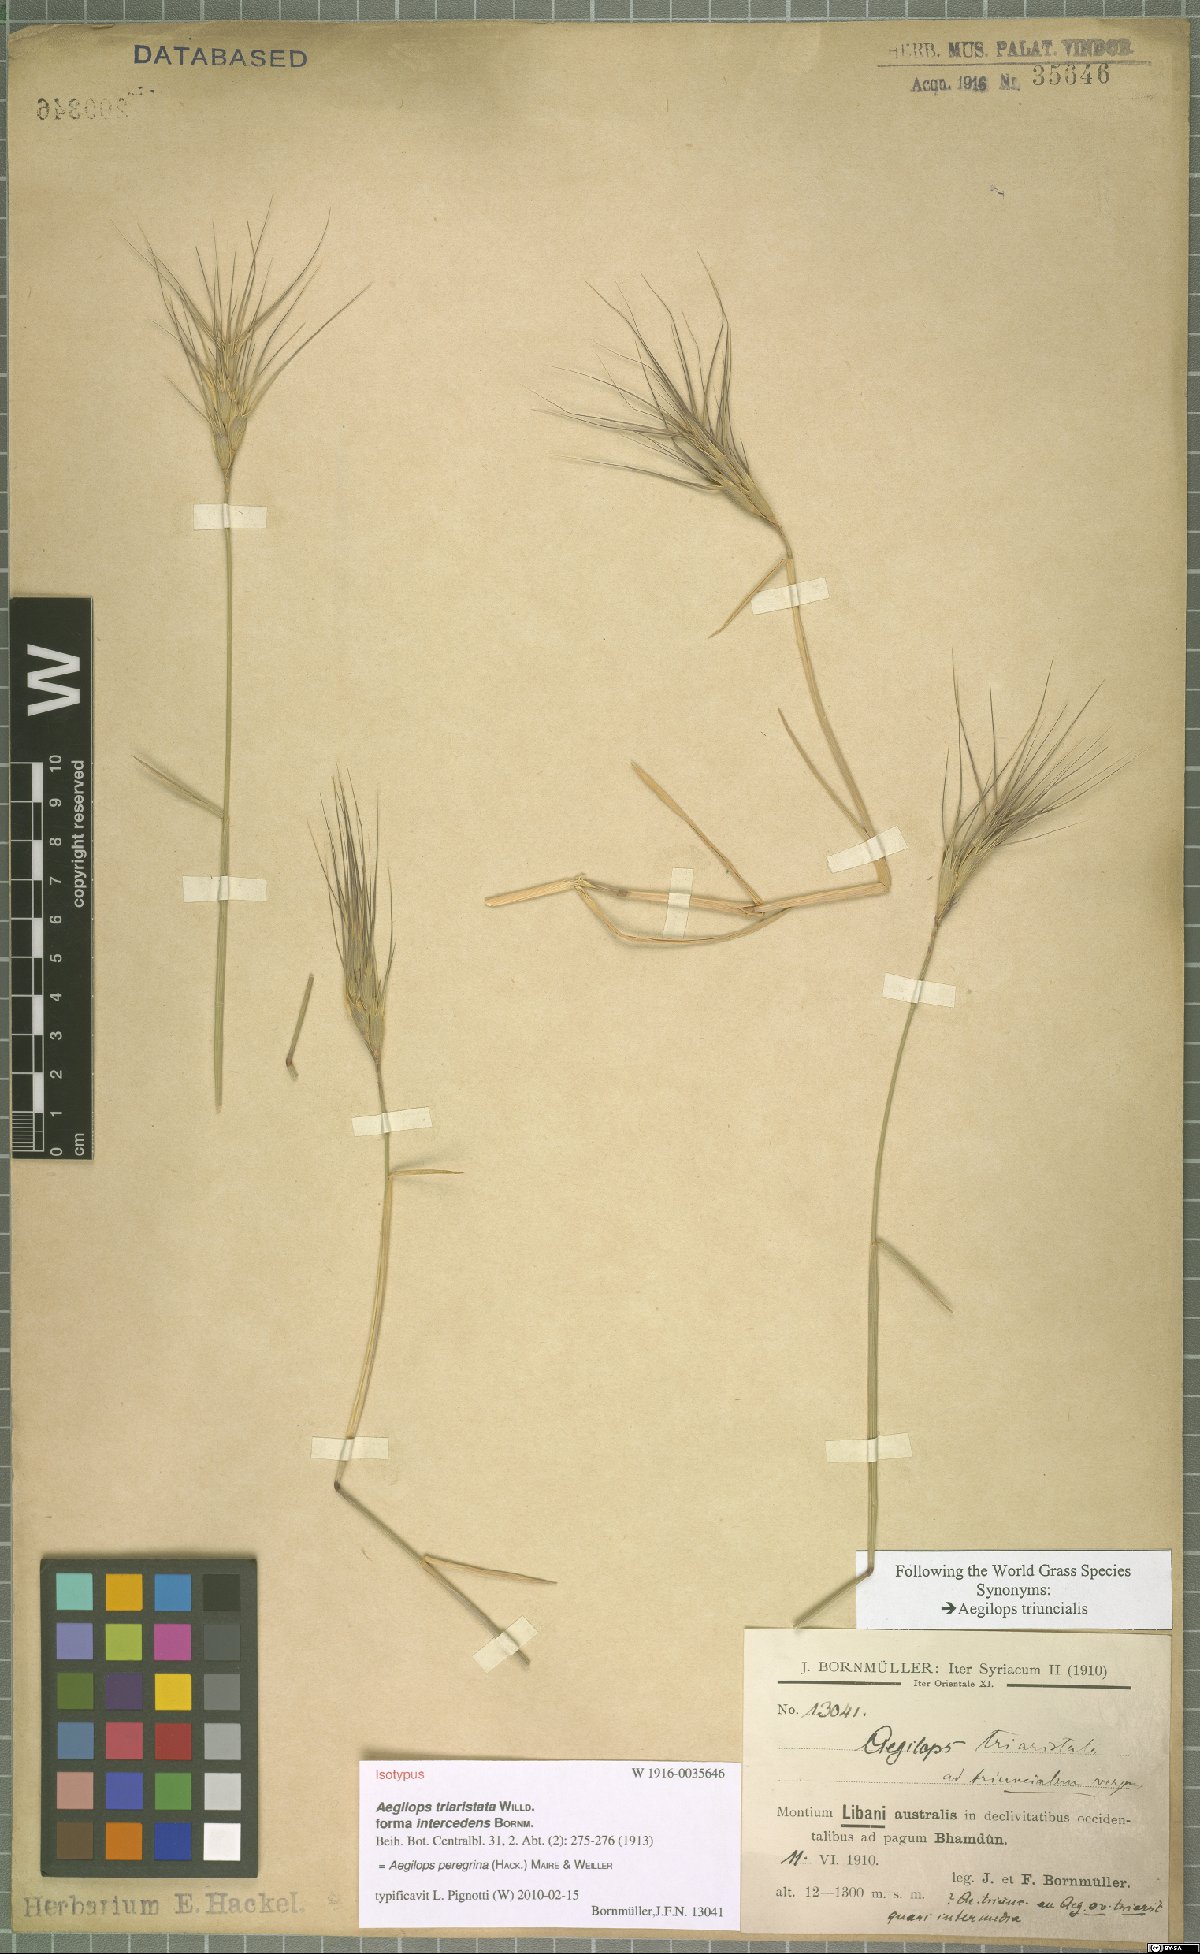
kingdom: Plantae
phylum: Tracheophyta
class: Liliopsida
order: Poales
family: Poaceae
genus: Aegilops
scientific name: Aegilops peregrina
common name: Goatgrass
